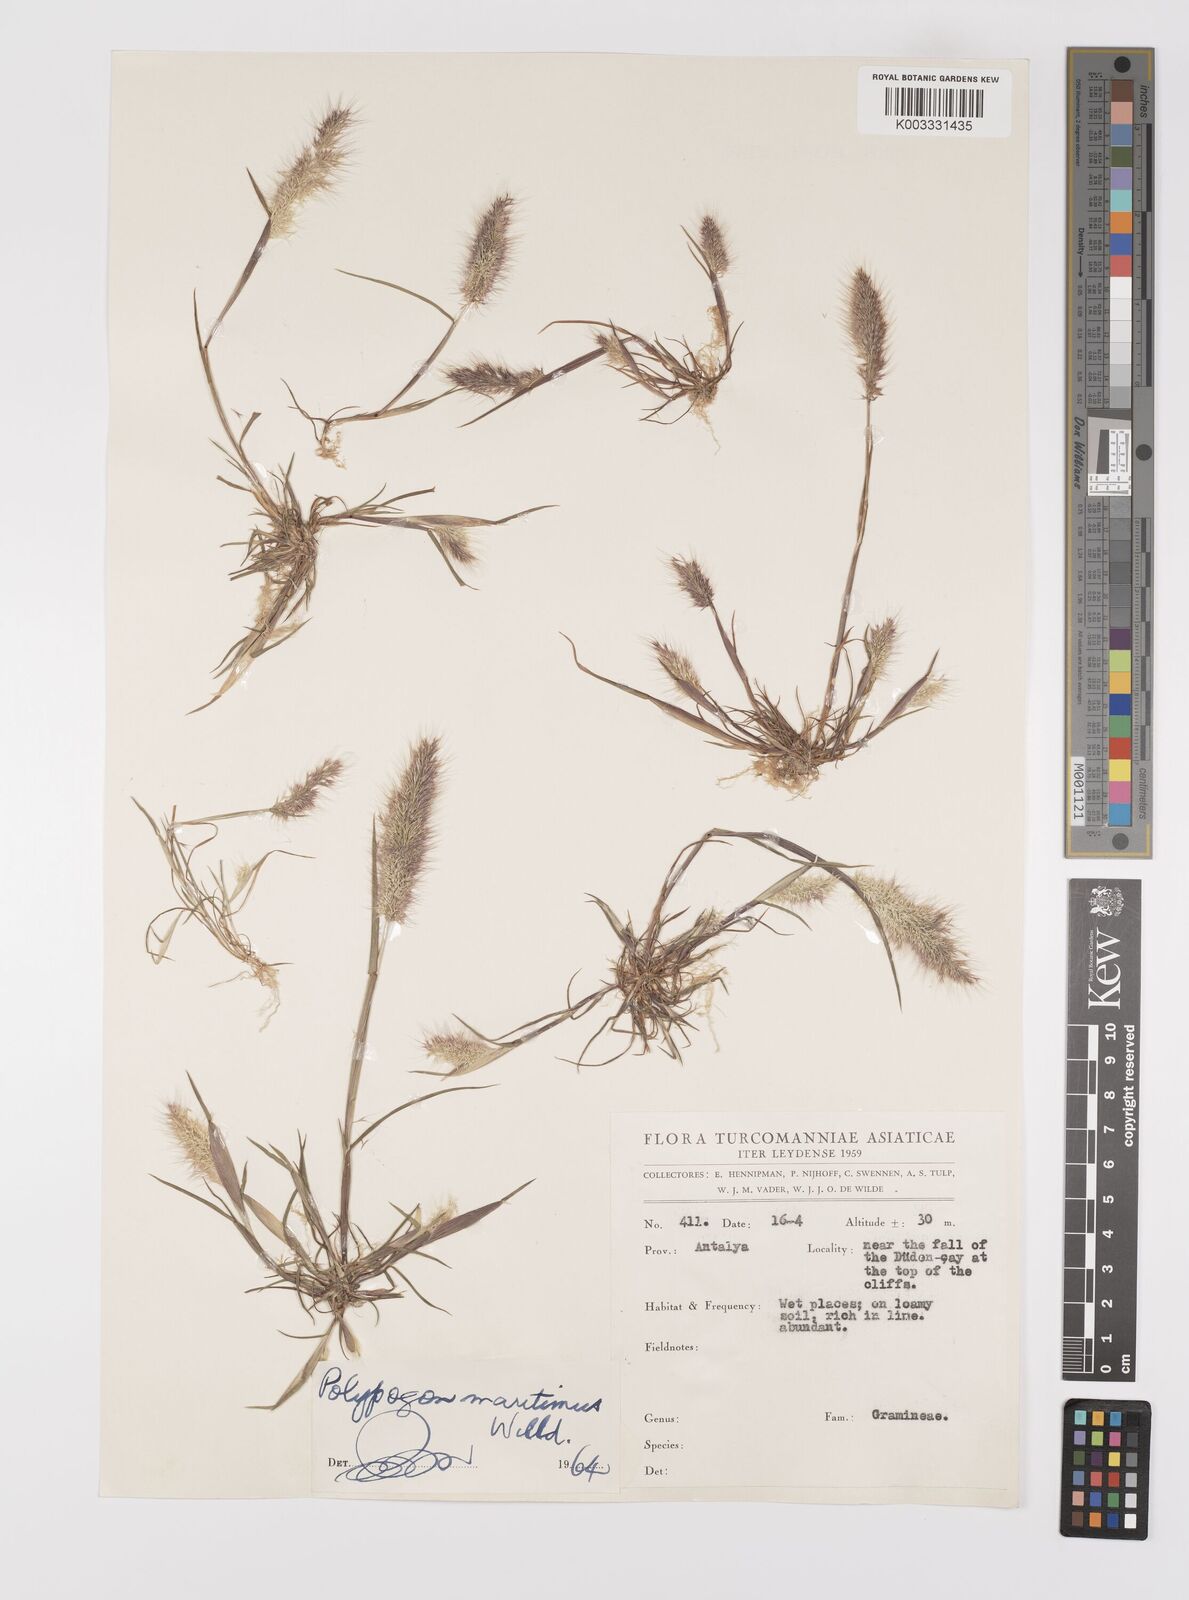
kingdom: Plantae
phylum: Tracheophyta
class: Liliopsida
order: Poales
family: Poaceae
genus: Polypogon
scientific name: Polypogon maritimus
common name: Mediterranean rabbitsfoot grass
